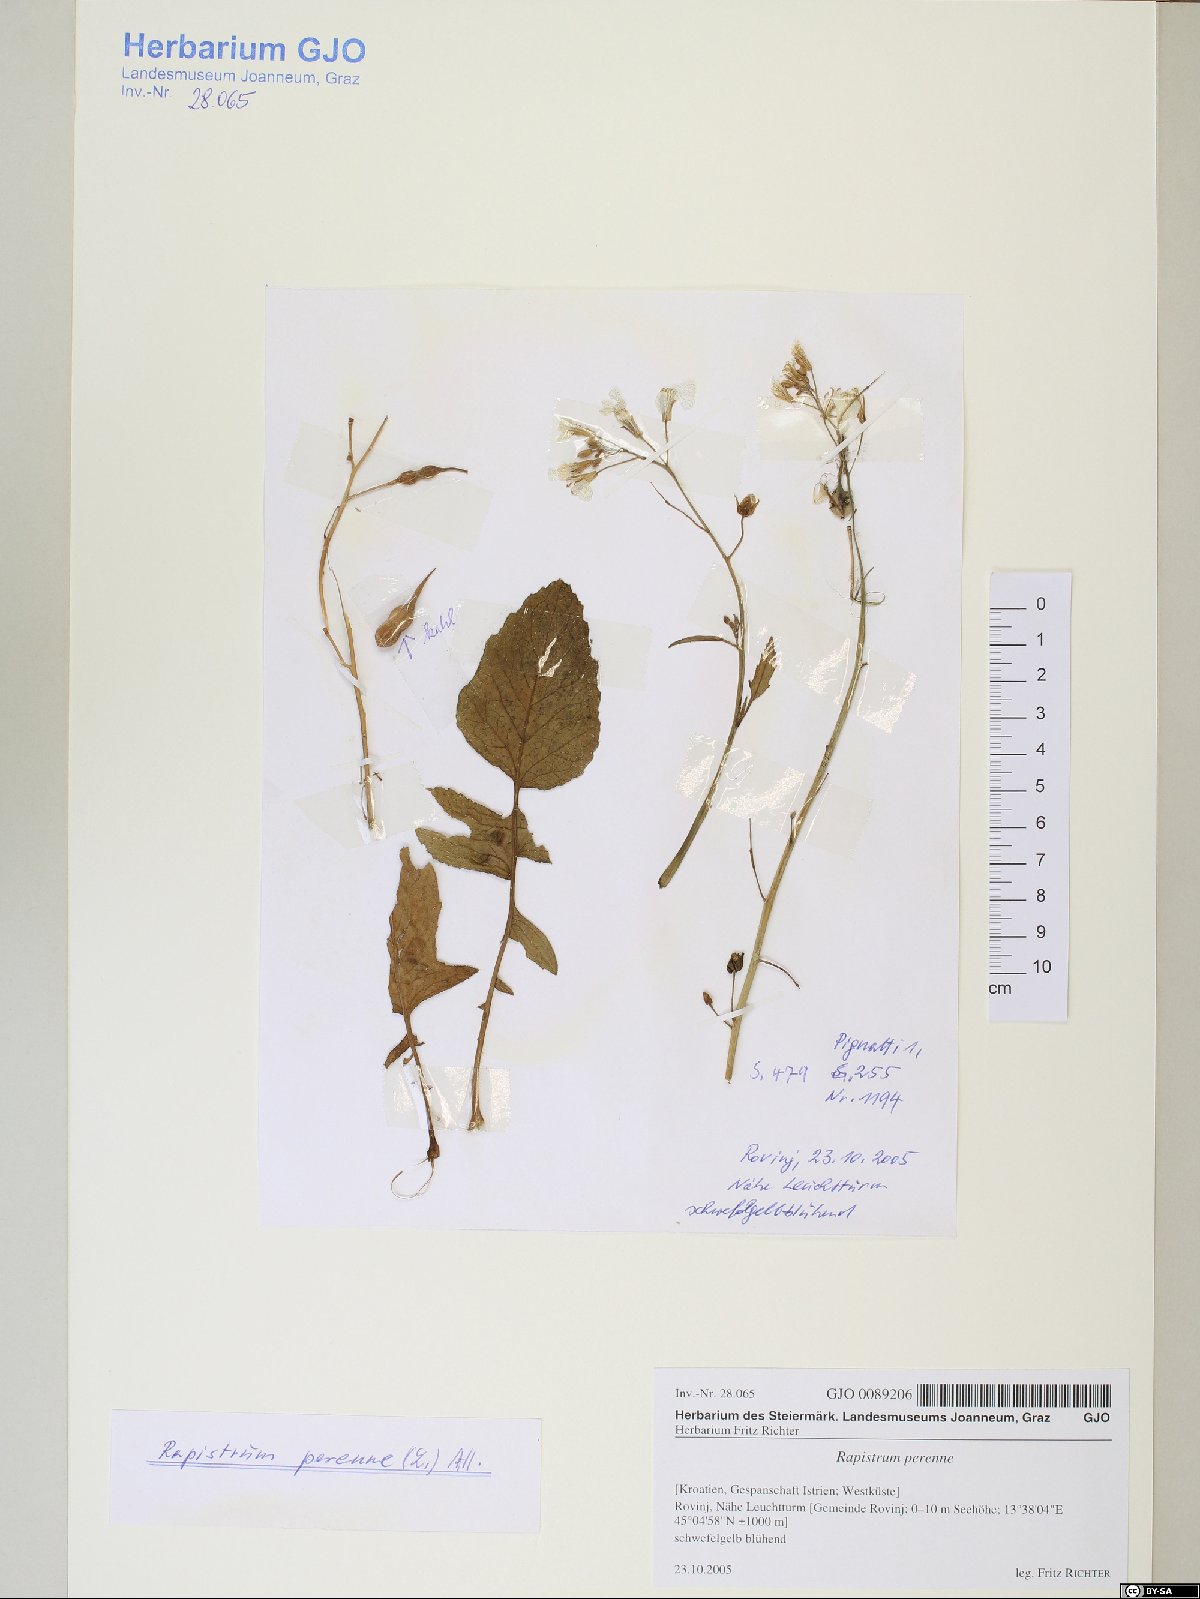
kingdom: Plantae
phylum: Tracheophyta
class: Magnoliopsida
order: Brassicales
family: Brassicaceae
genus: Raphanus
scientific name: Raphanus raphanistrum
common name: Wild radish
